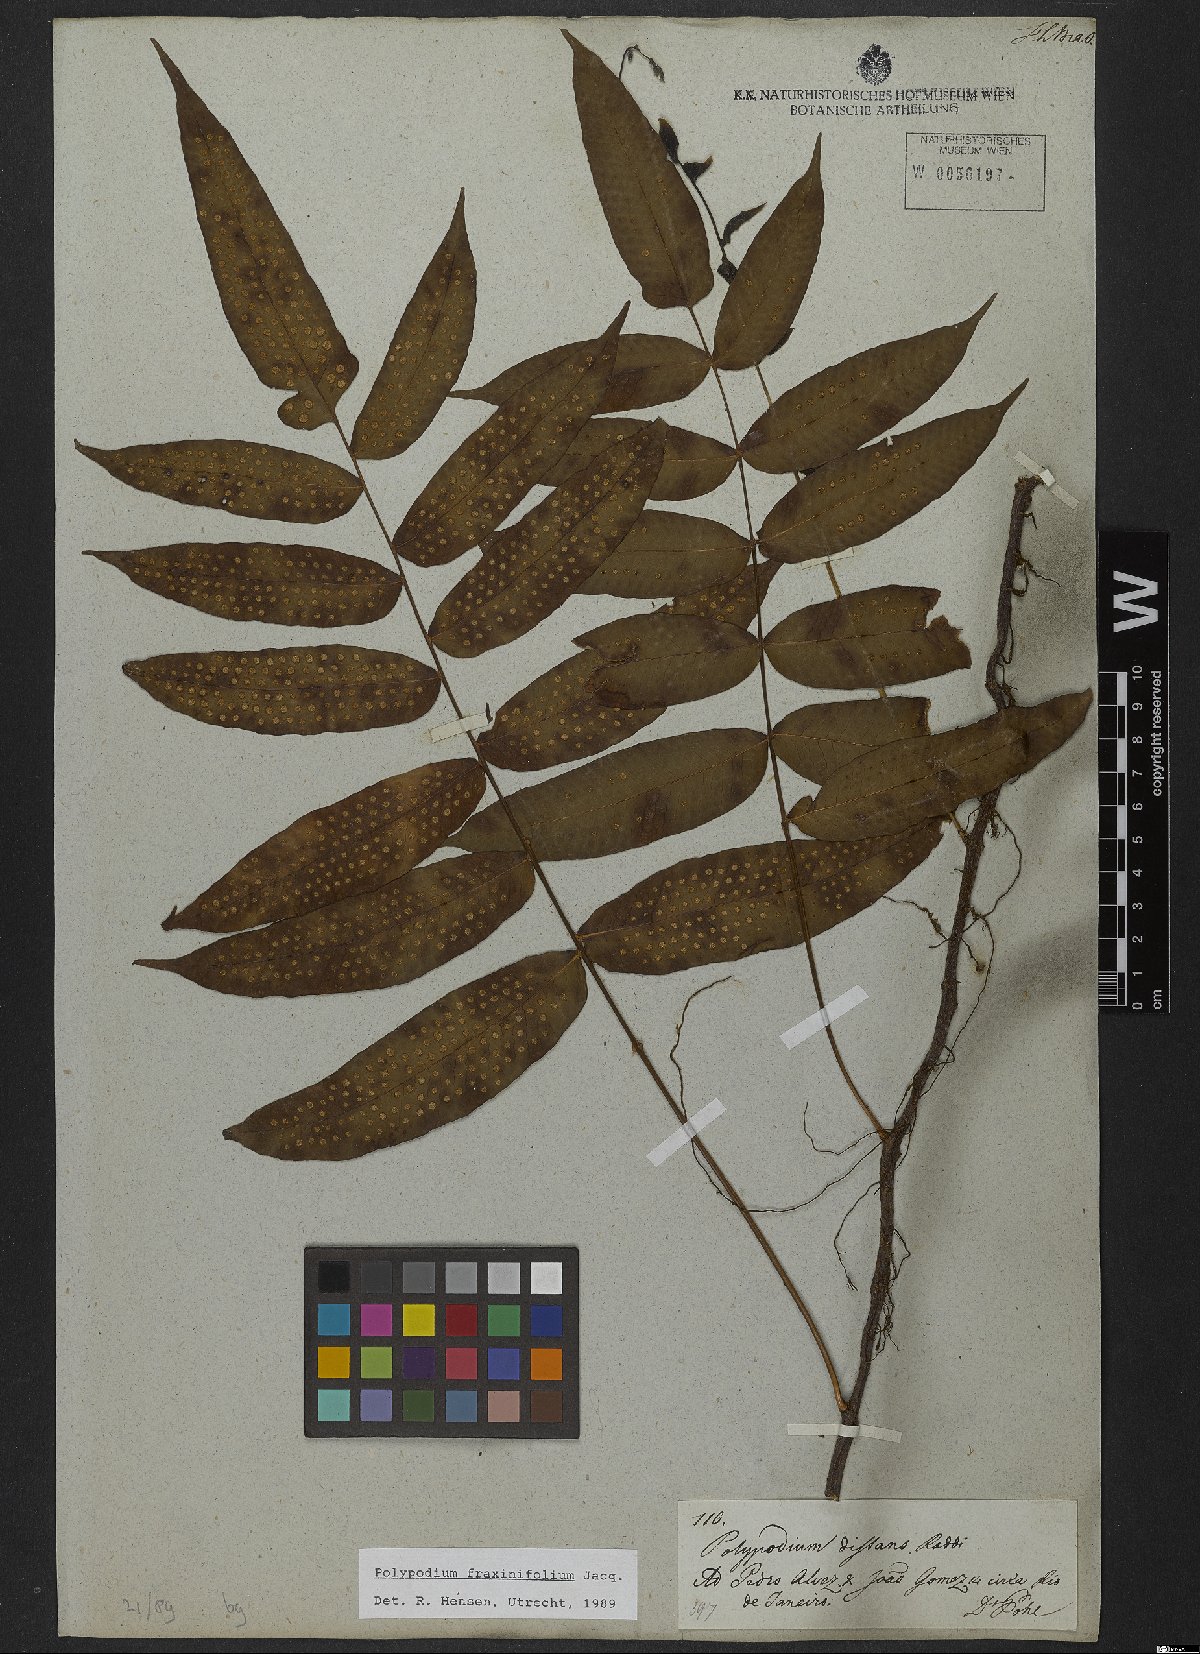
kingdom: Plantae
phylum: Tracheophyta
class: Polypodiopsida
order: Polypodiales
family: Polypodiaceae
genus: Serpocaulon
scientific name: Serpocaulon fraxinifolium
